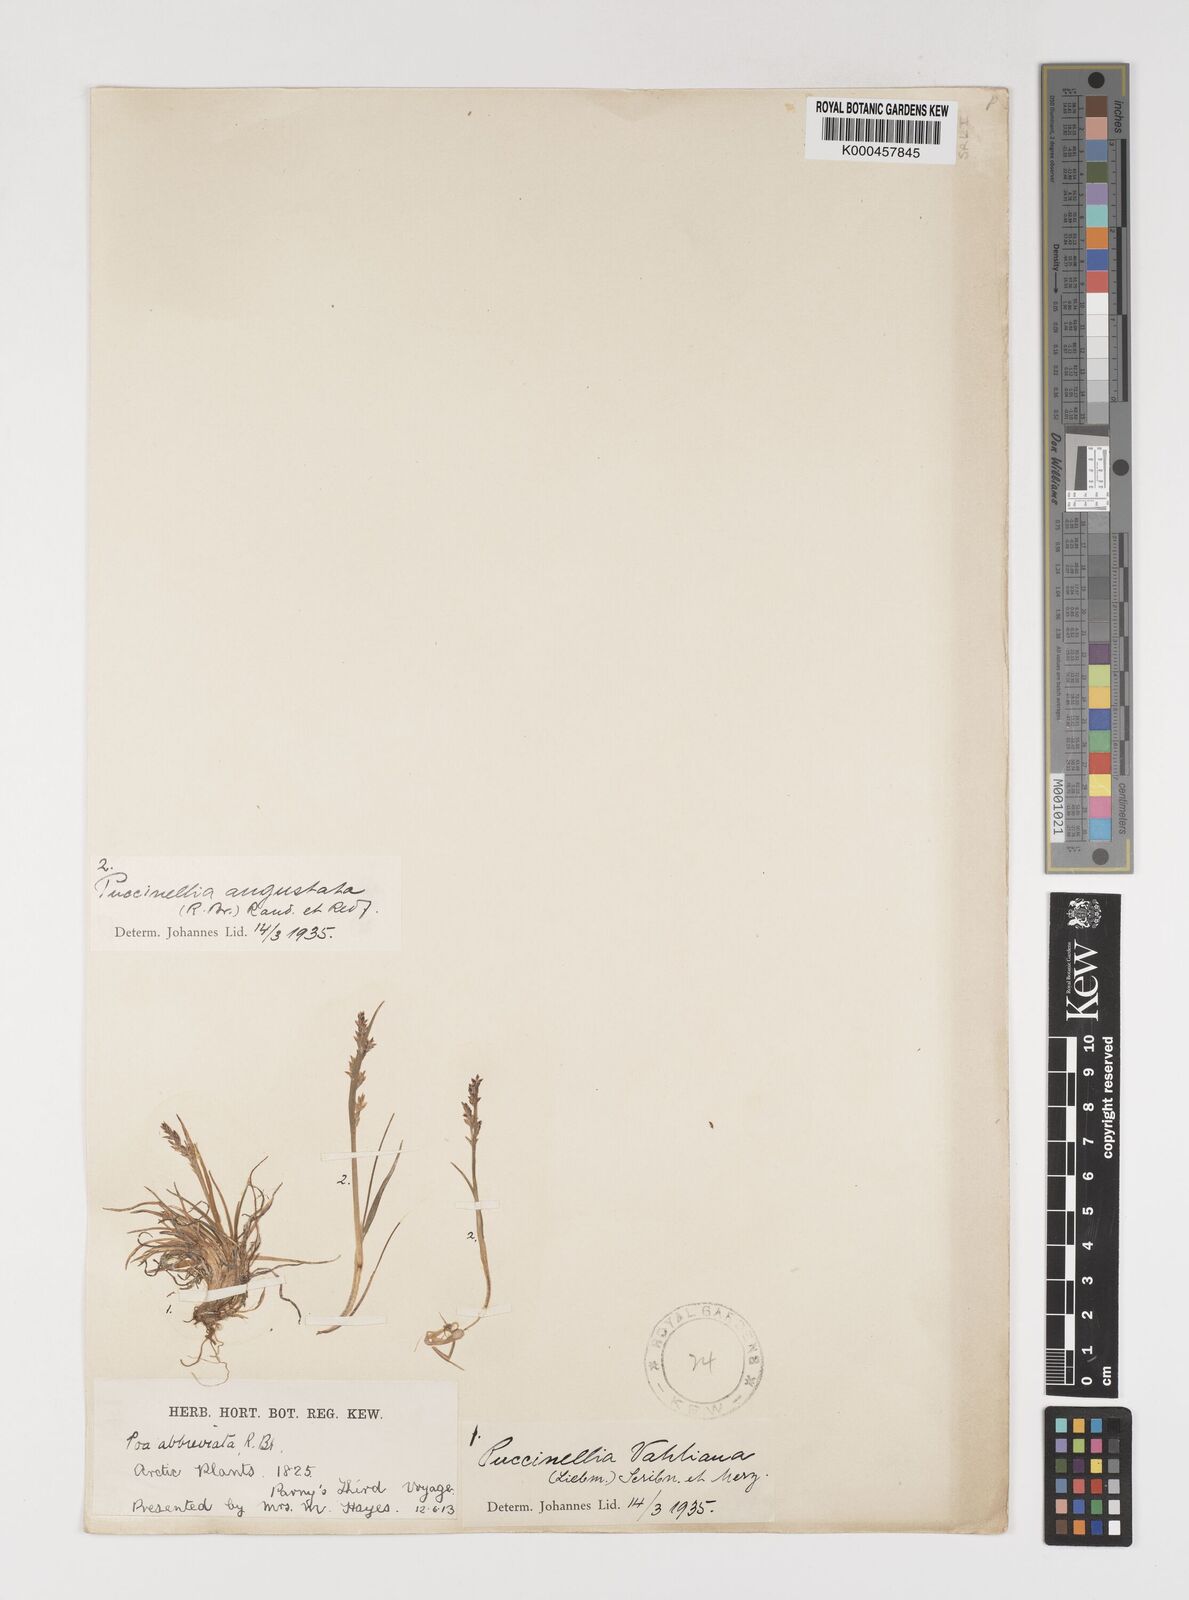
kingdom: Plantae
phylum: Tracheophyta
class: Liliopsida
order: Poales
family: Poaceae
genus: Puccinellia
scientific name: Puccinellia angustata
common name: Narrow alkaligrass
